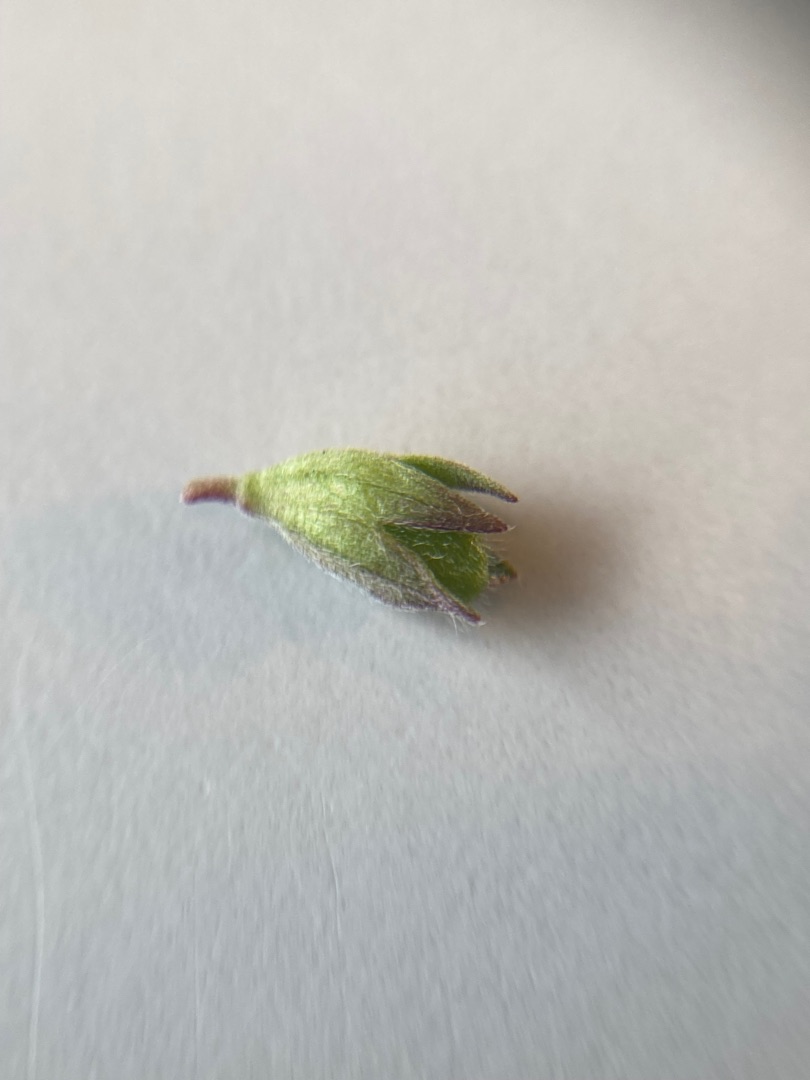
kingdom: Plantae
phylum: Tracheophyta
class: Magnoliopsida
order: Lamiales
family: Orobanchaceae
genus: Odontites
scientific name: Odontites vulgaris
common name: Høst-rødtop
